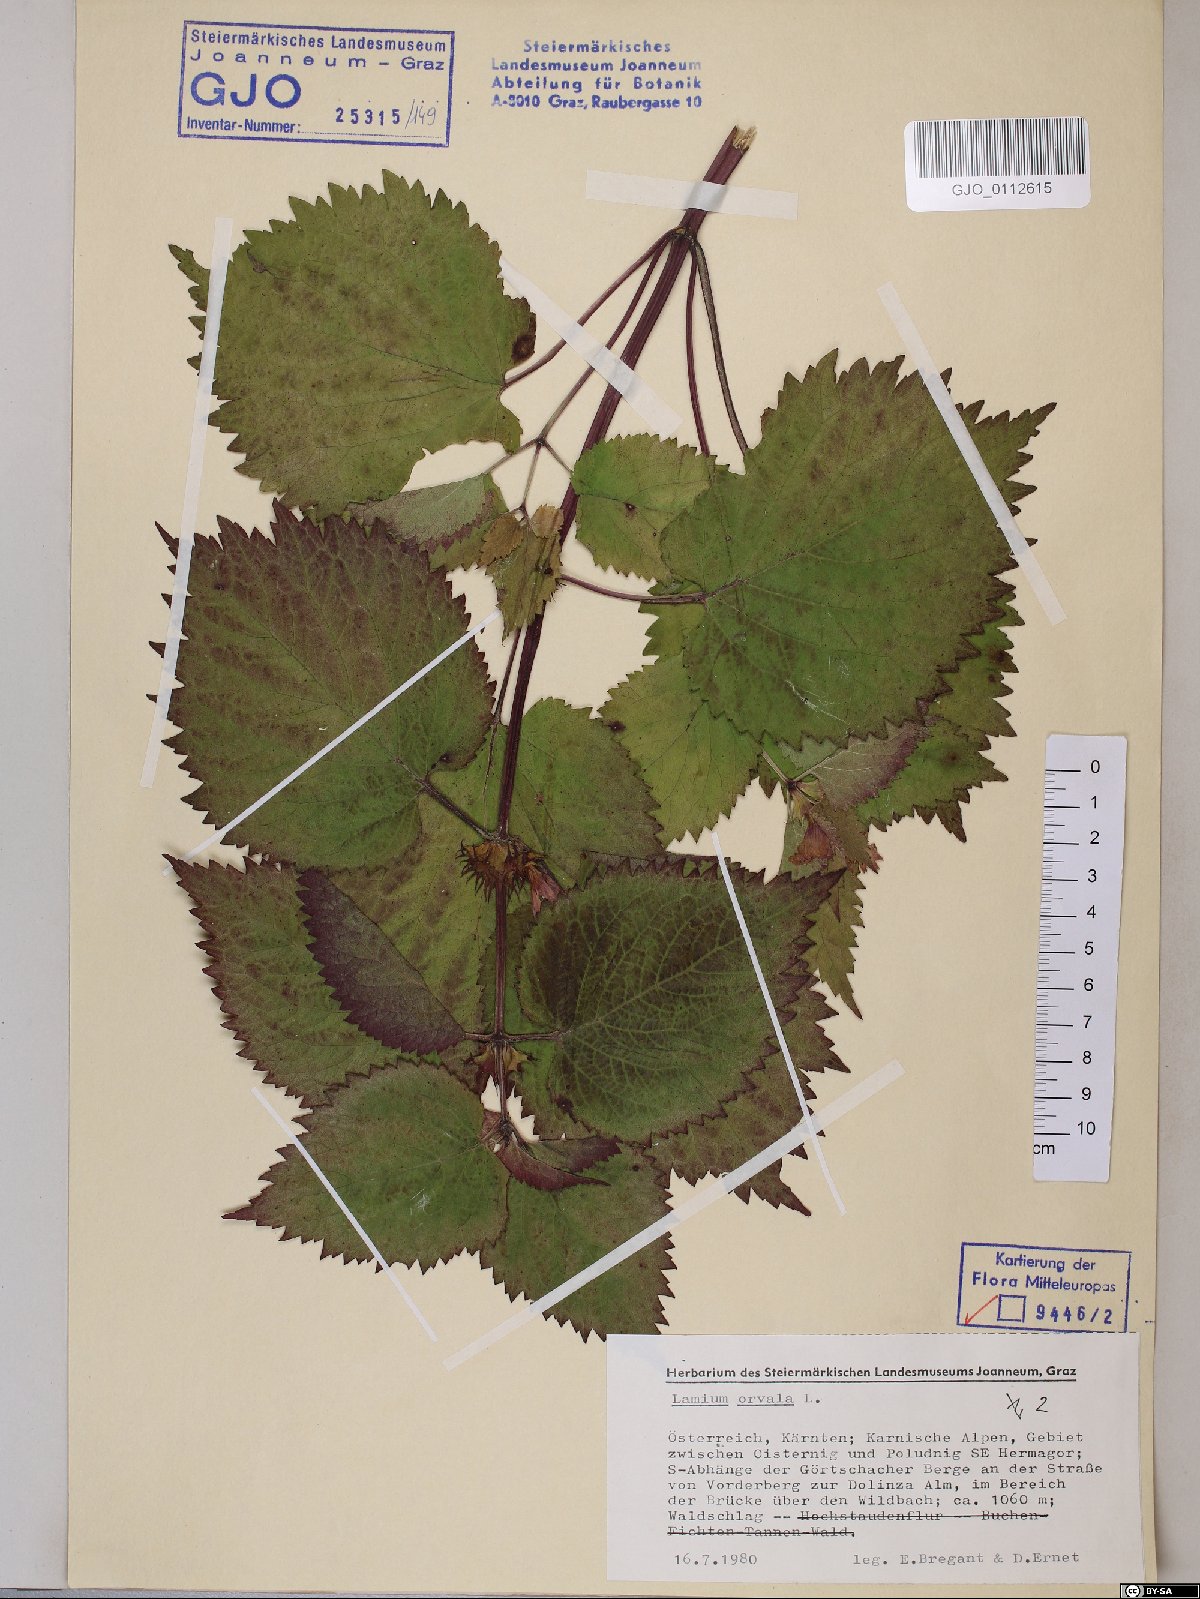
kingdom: Plantae
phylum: Tracheophyta
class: Magnoliopsida
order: Lamiales
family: Lamiaceae
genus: Lamium
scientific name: Lamium orvala
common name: Balm-leaved archangel
